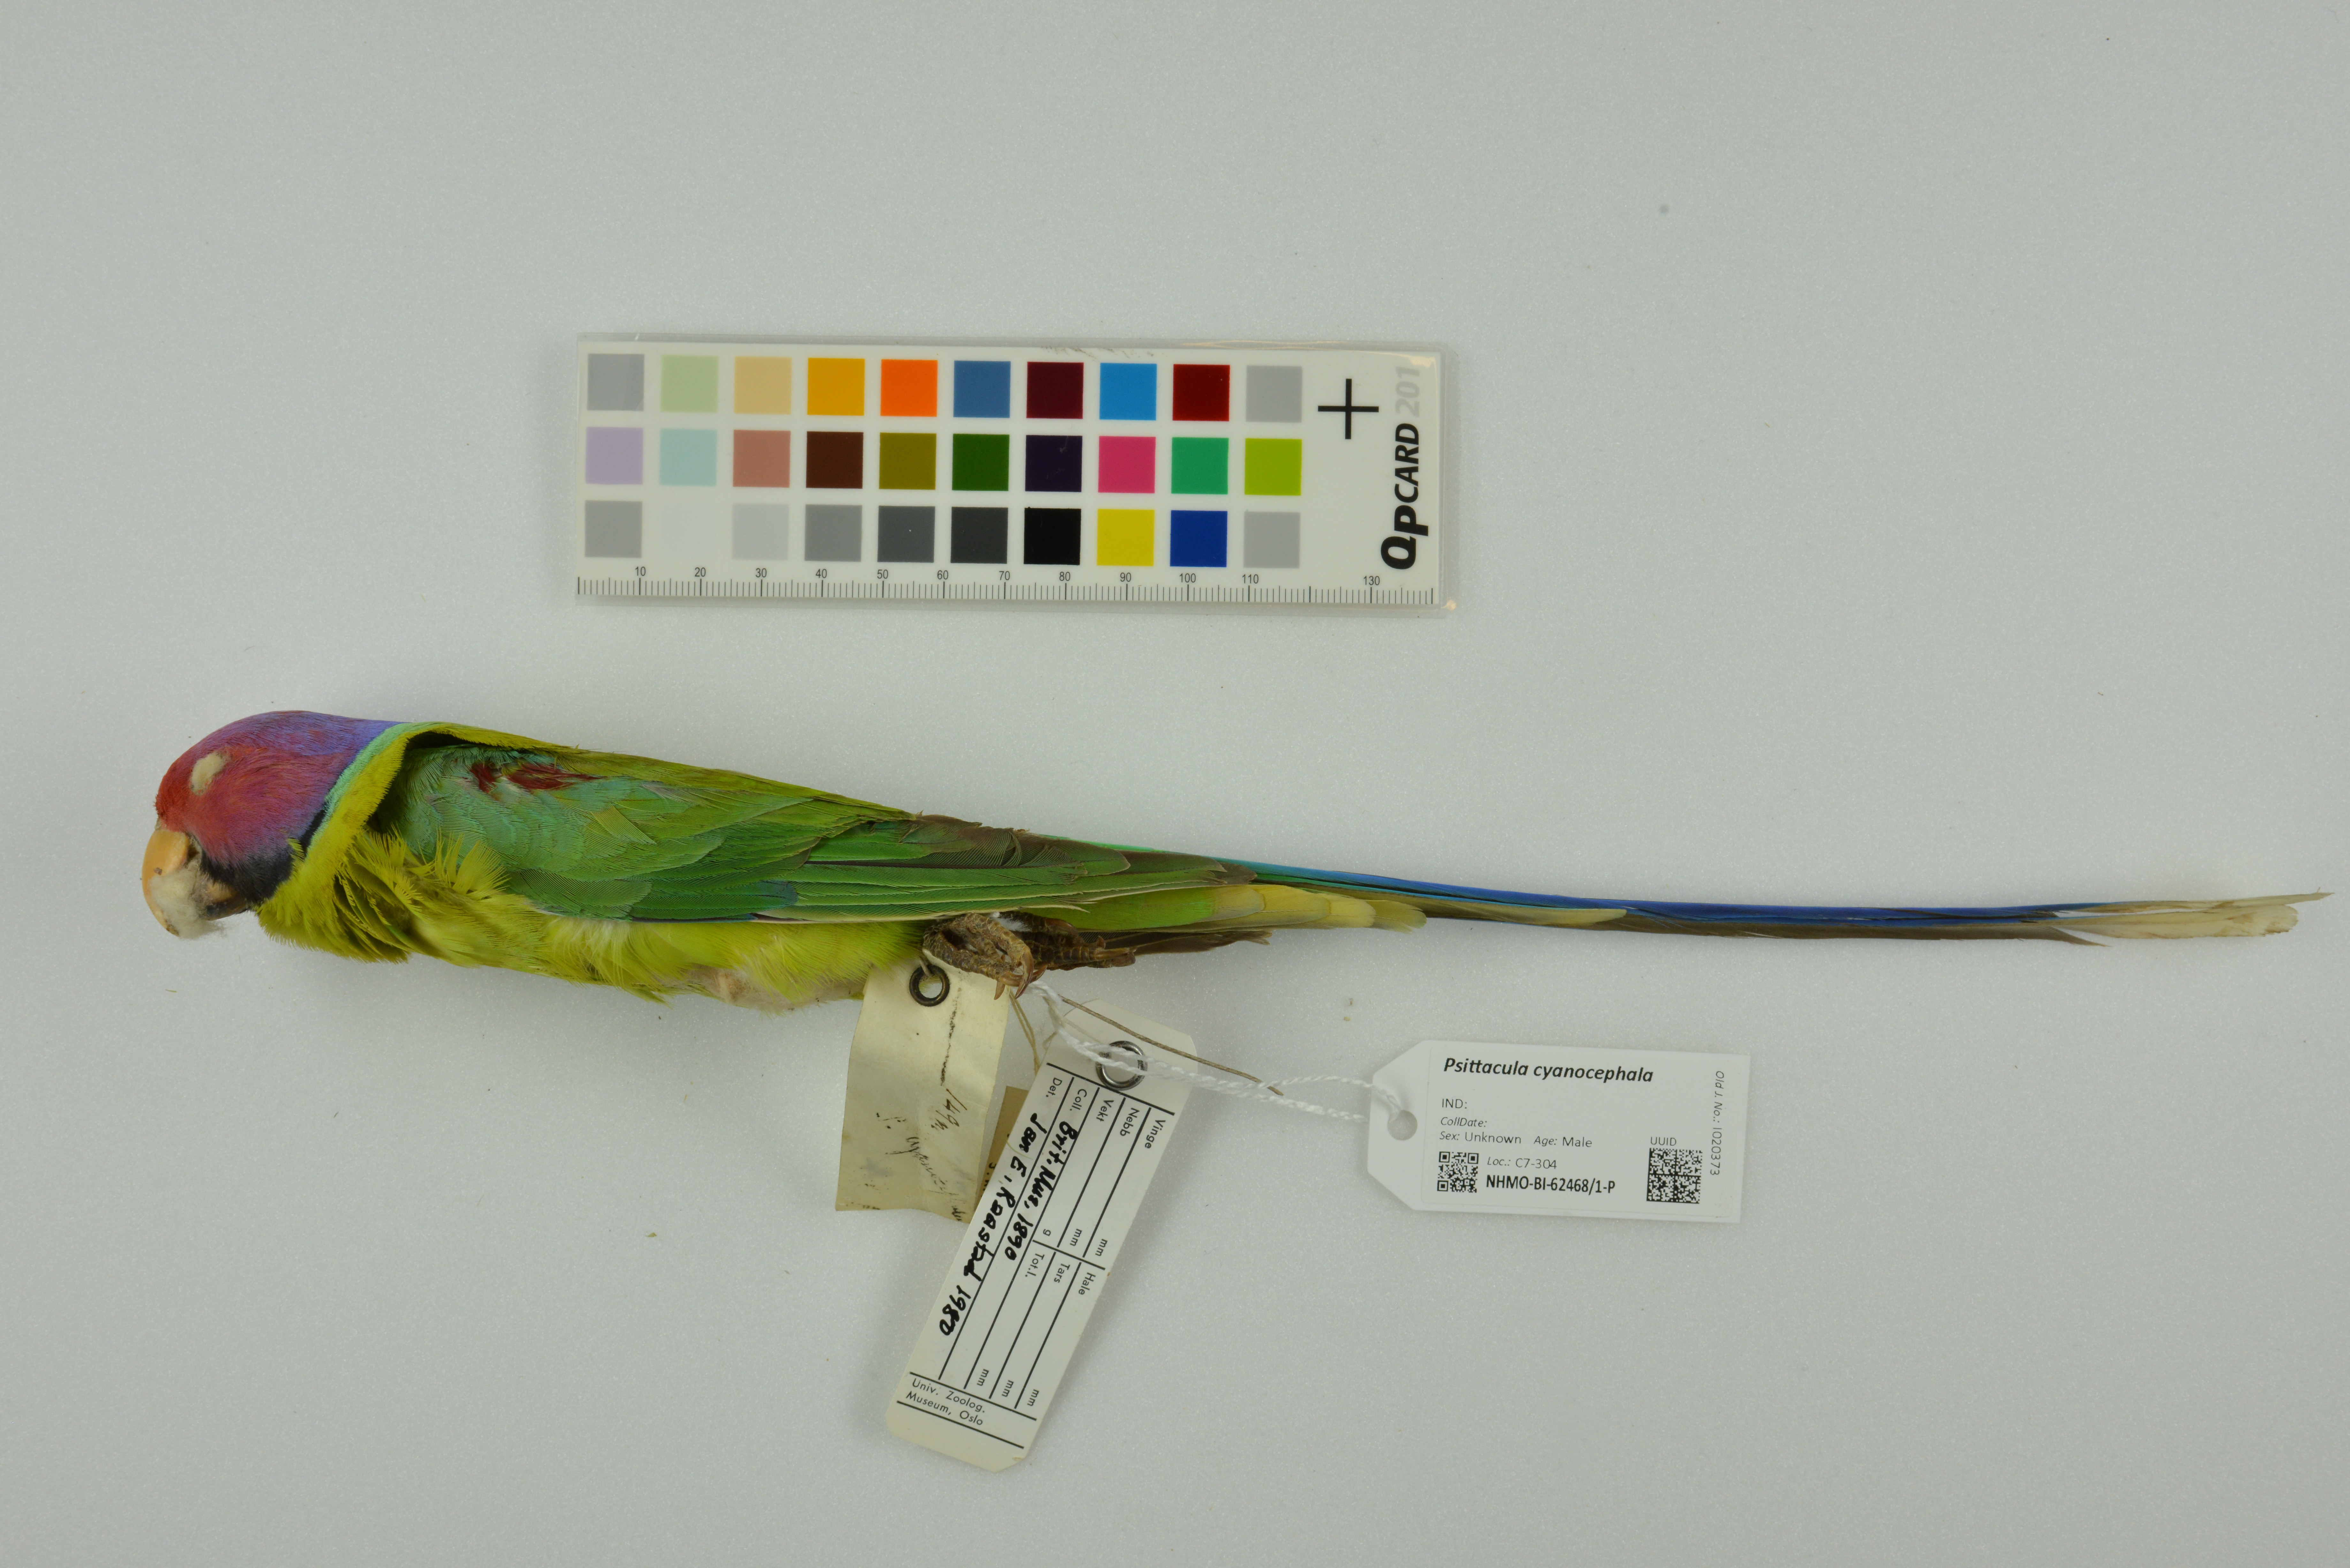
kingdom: Animalia
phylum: Chordata
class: Aves
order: Psittaciformes
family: Psittacidae
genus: Psittacula
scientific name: Psittacula cyanocephala
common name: Plum-headed parakeet
